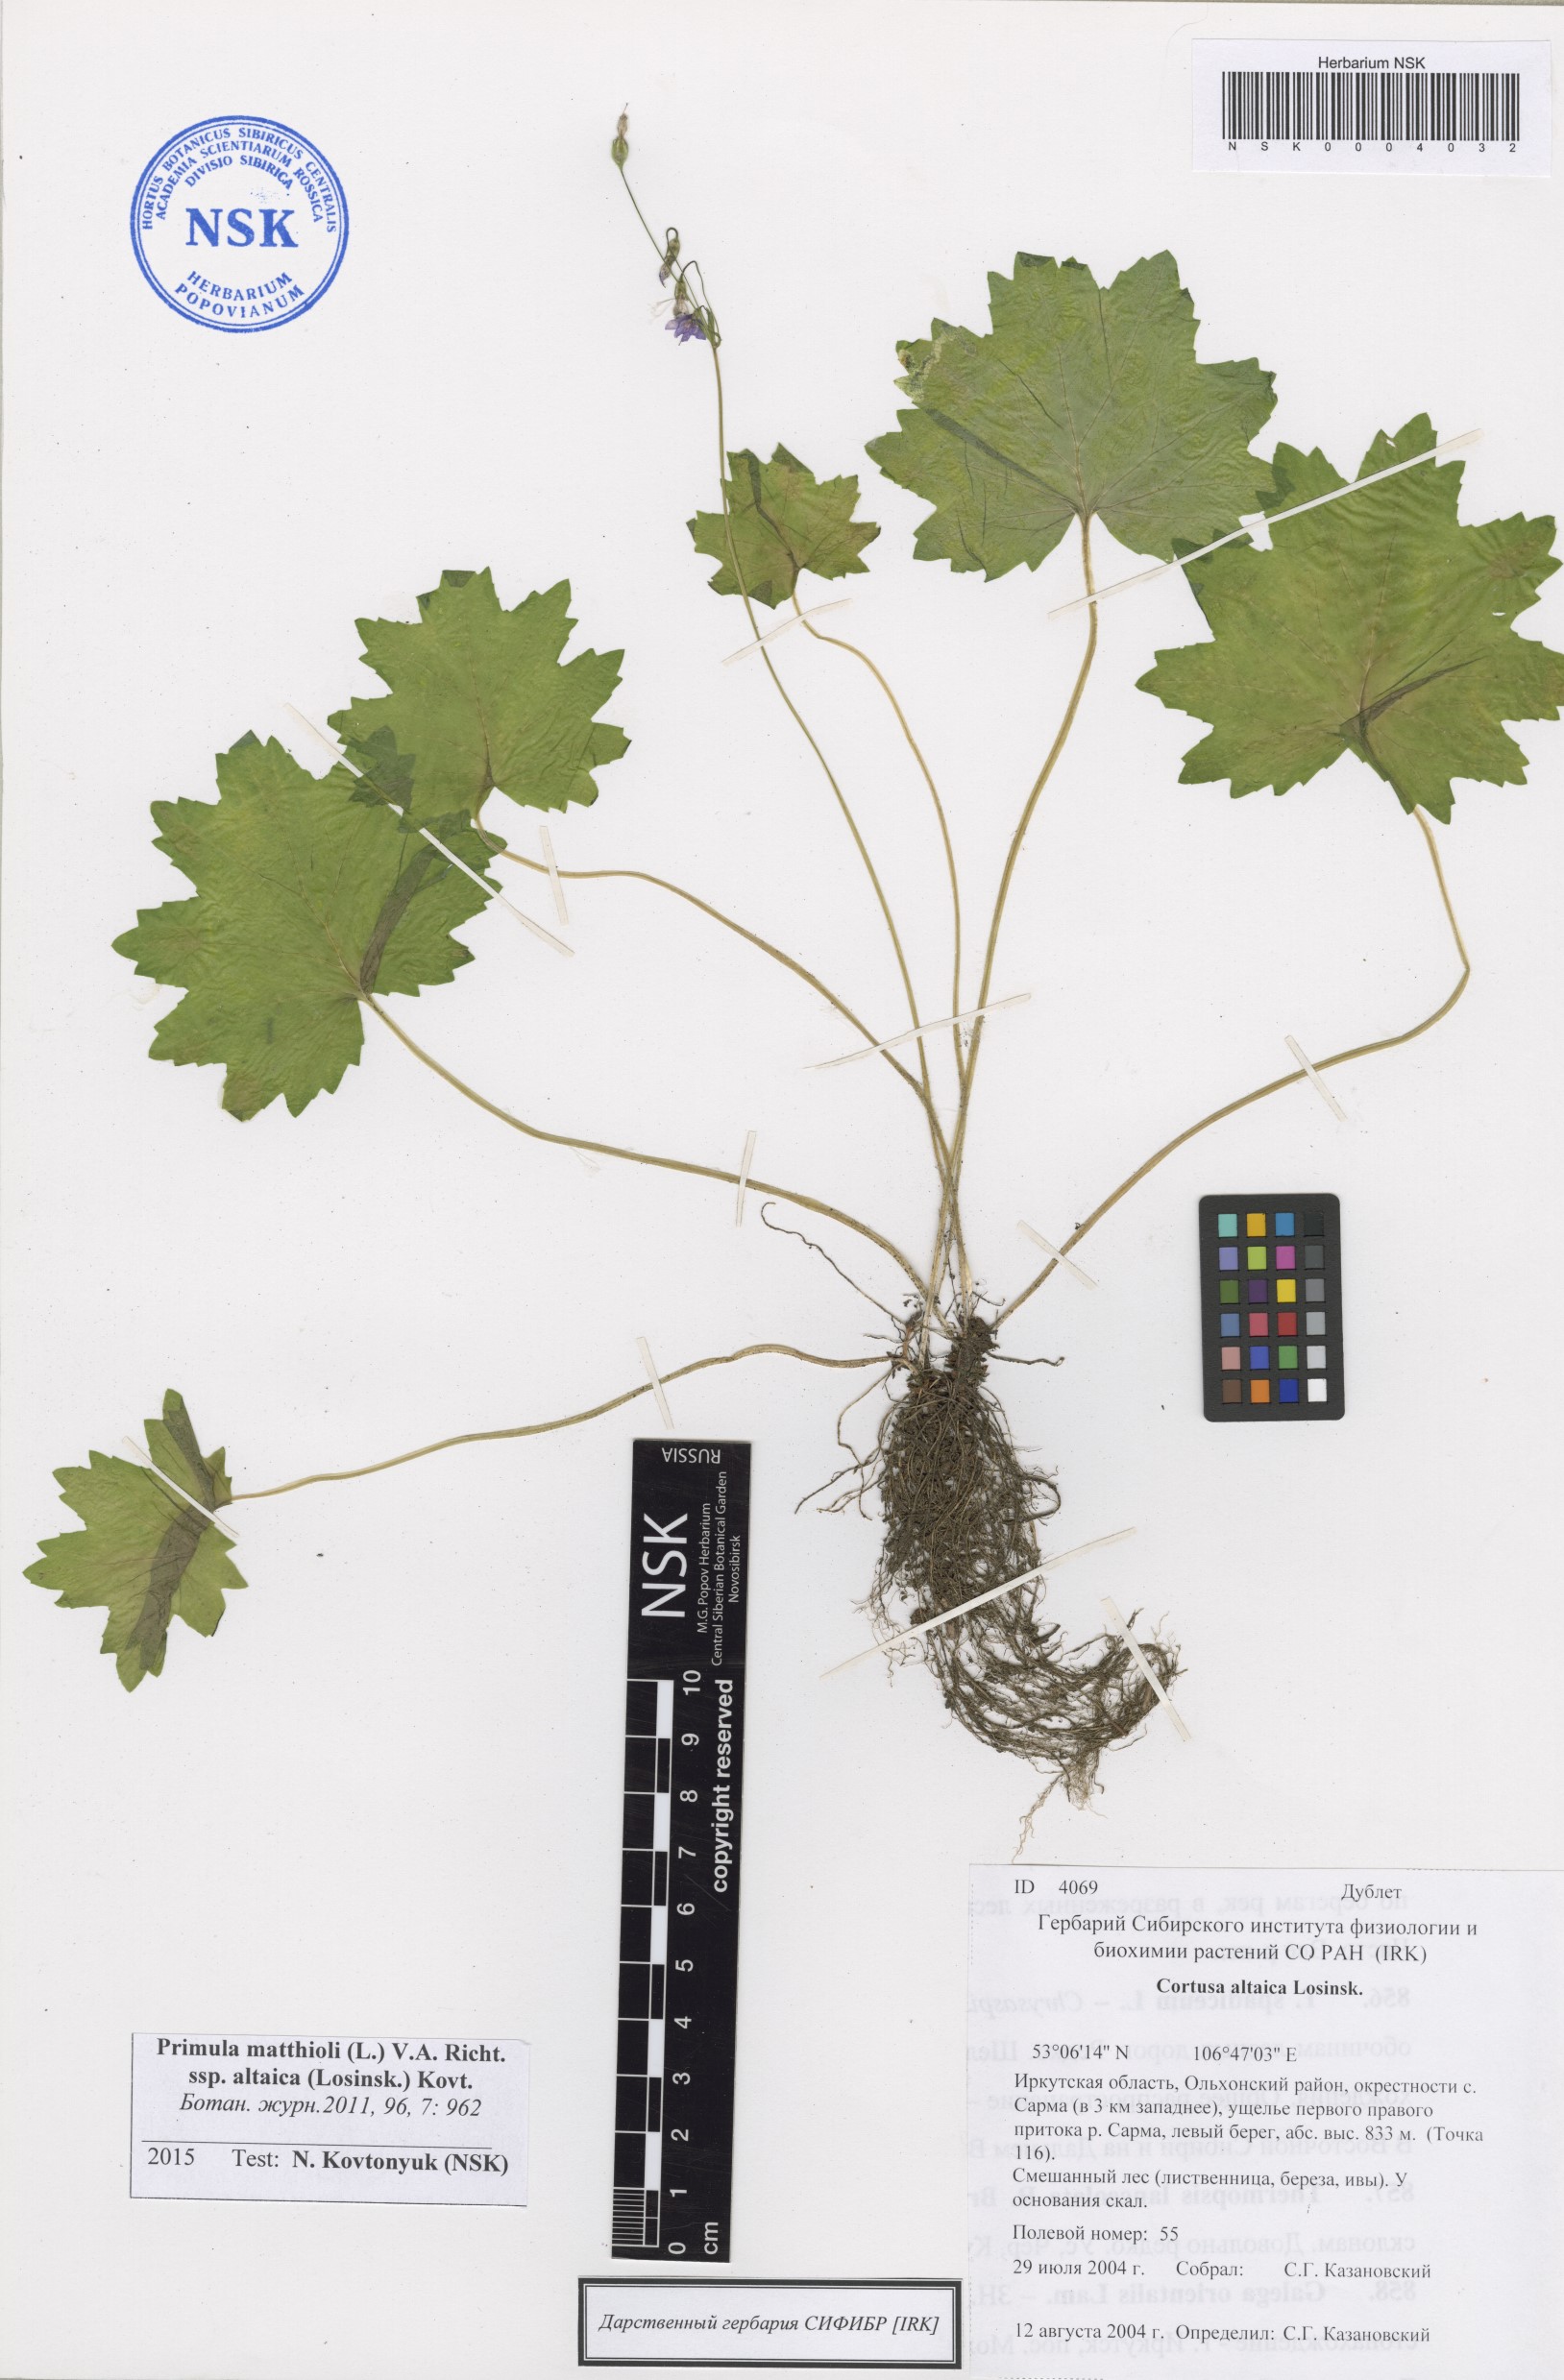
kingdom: Plantae
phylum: Tracheophyta
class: Magnoliopsida
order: Ericales
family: Primulaceae
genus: Primula
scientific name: Primula matthioli
